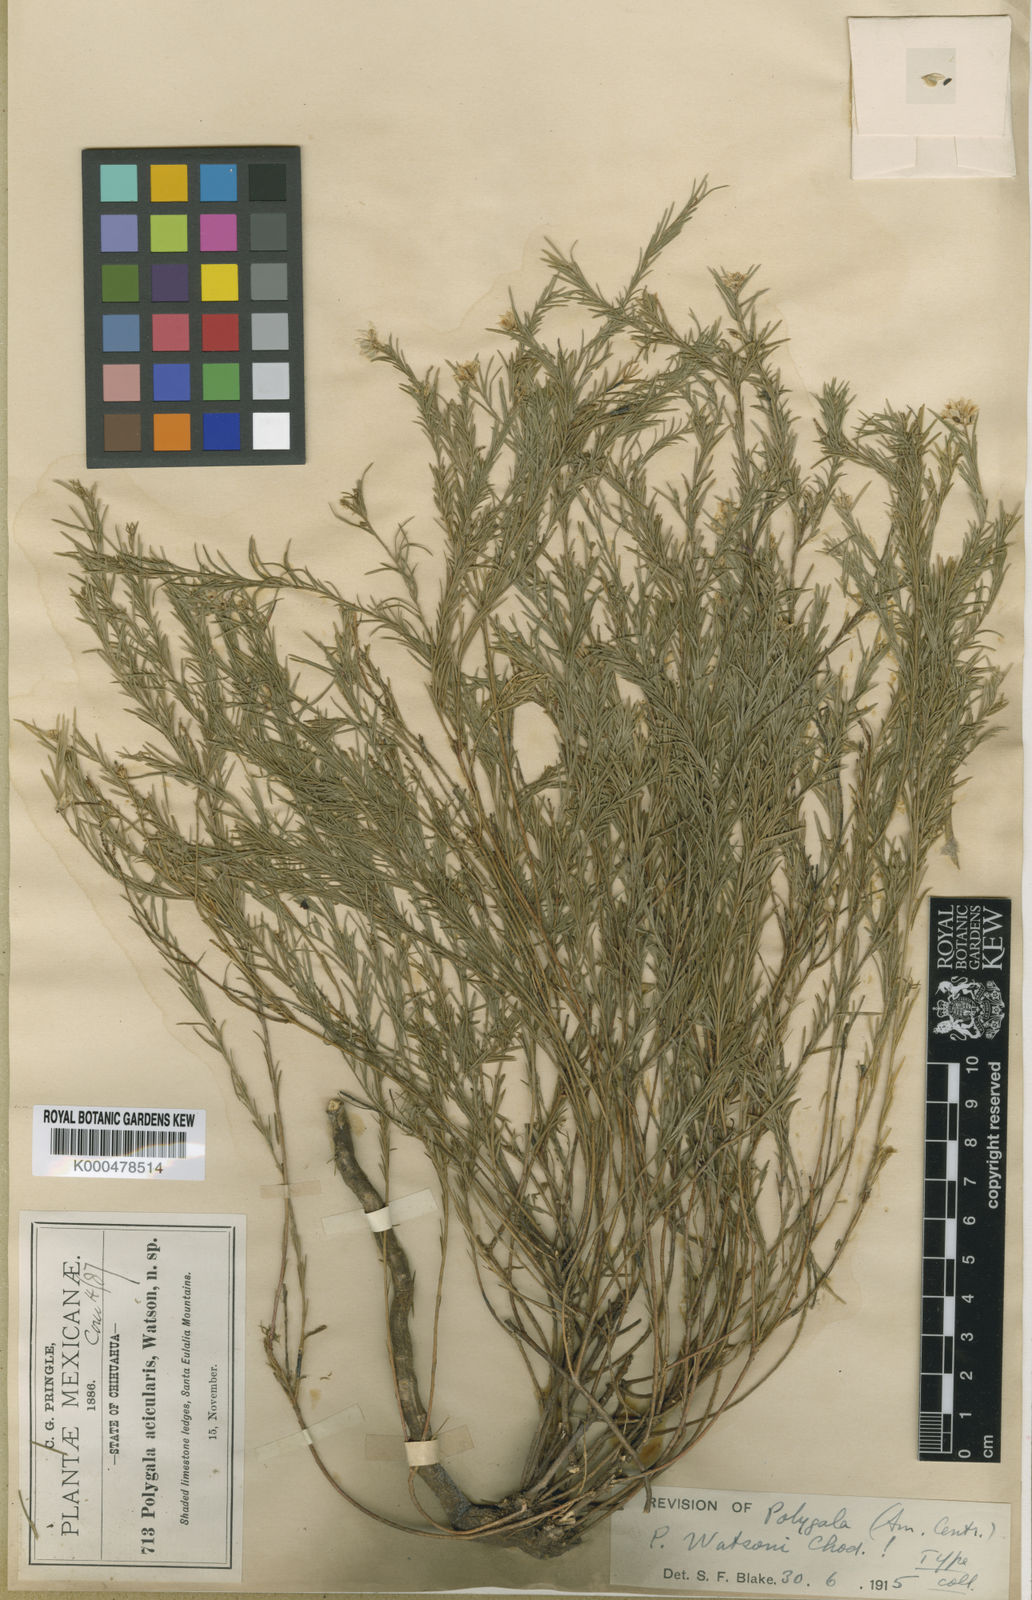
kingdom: Plantae
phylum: Tracheophyta
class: Magnoliopsida
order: Fabales
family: Polygalaceae
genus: Polygala
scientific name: Polygala watsonii
